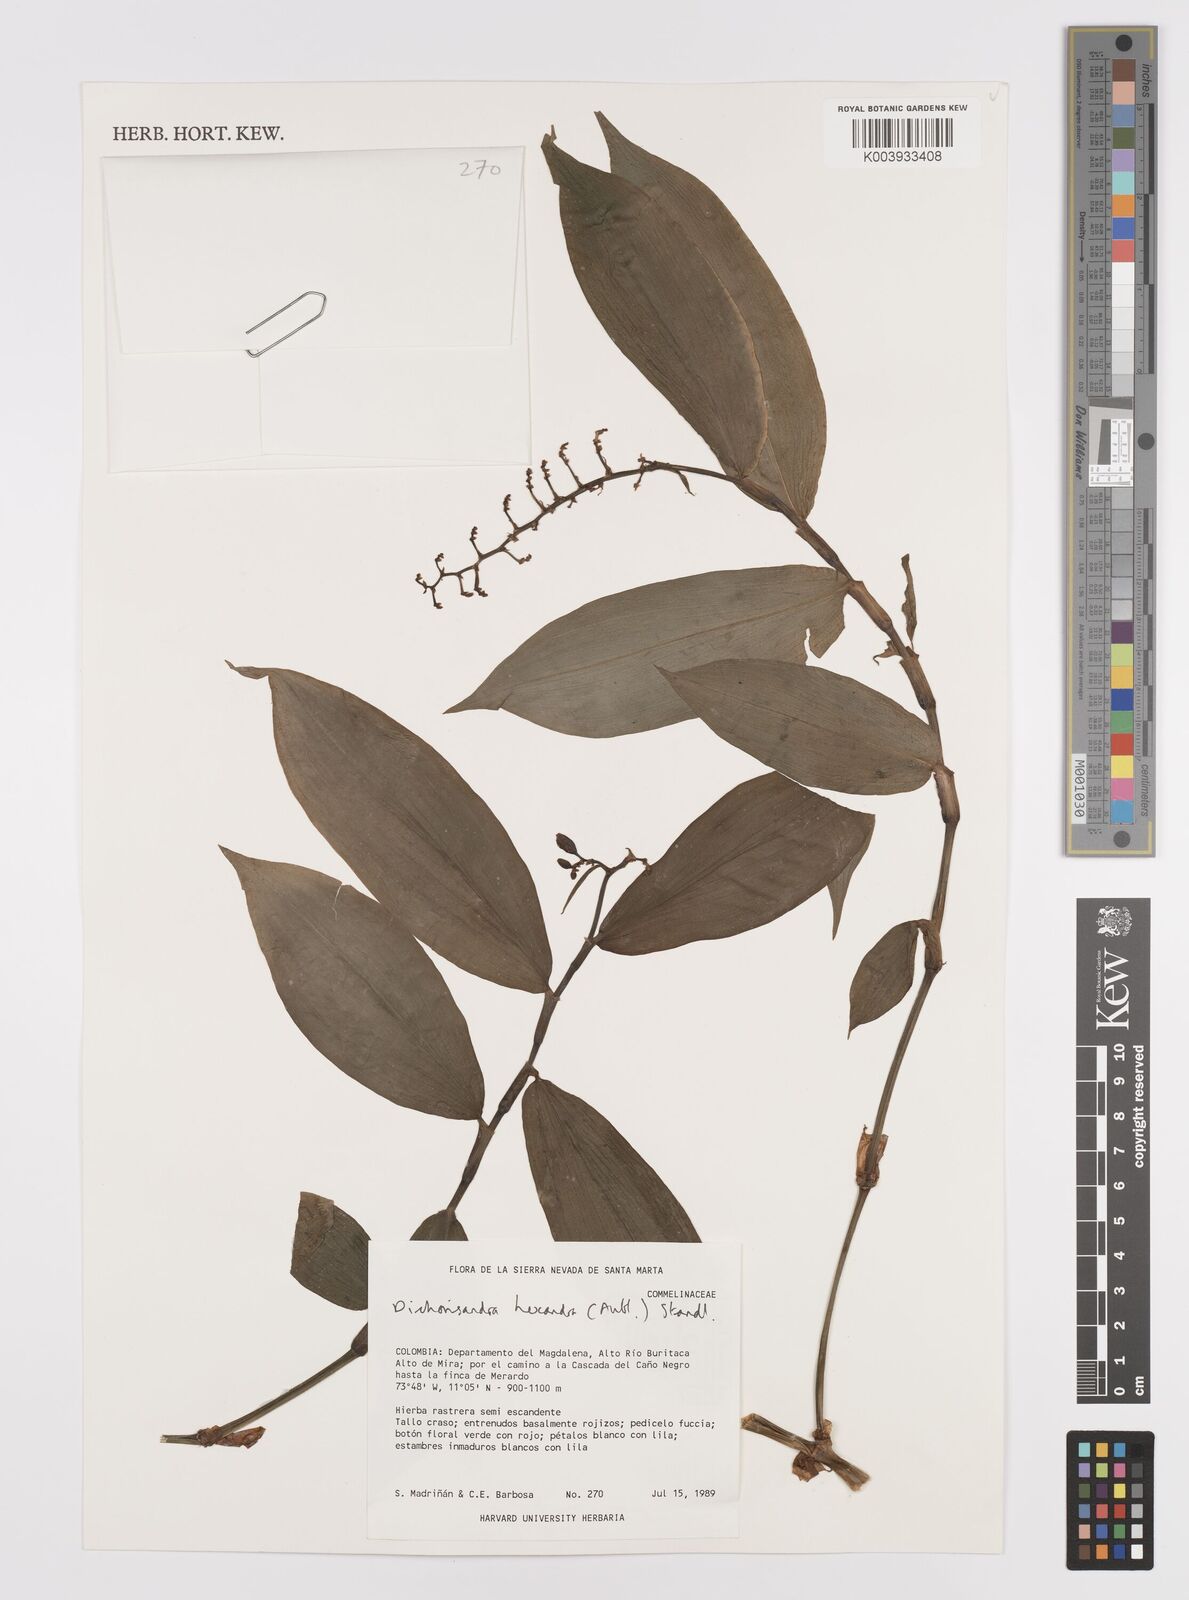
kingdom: Plantae
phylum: Tracheophyta
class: Liliopsida
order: Commelinales
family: Commelinaceae
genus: Dichorisandra
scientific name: Dichorisandra hexandra
